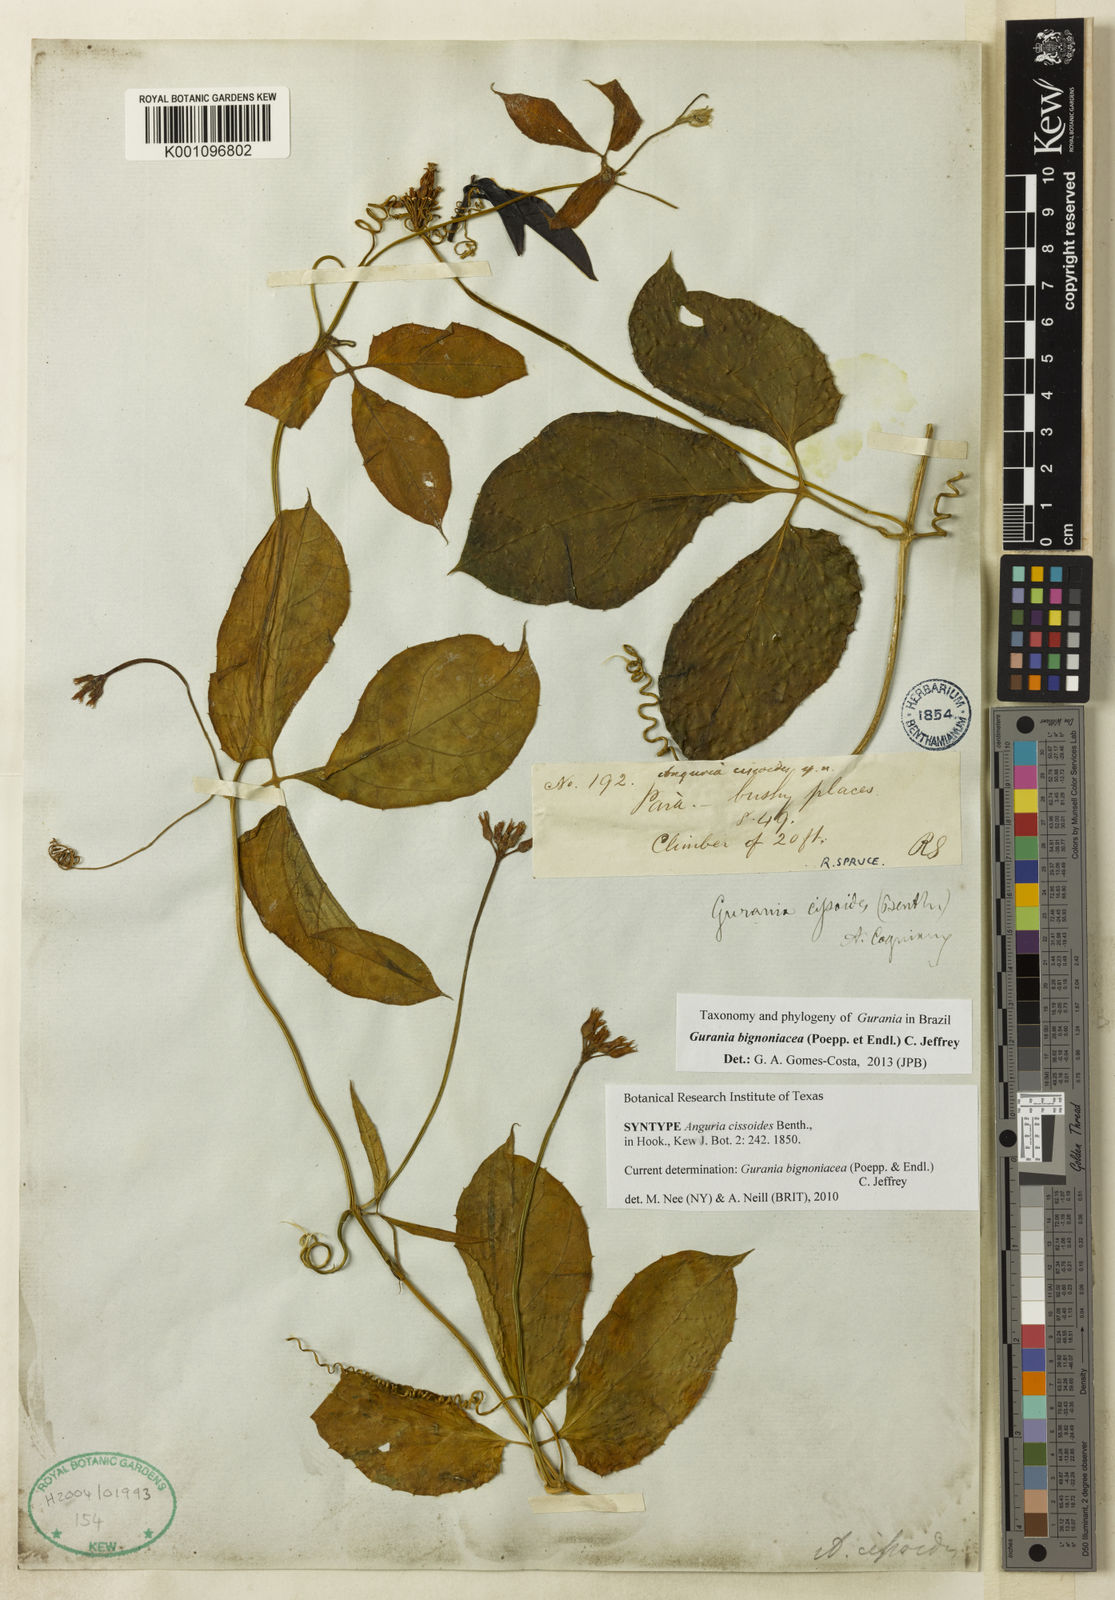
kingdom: Plantae
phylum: Tracheophyta
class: Magnoliopsida
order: Cucurbitales
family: Cucurbitaceae
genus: Gurania
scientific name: Gurania bignoniacea
